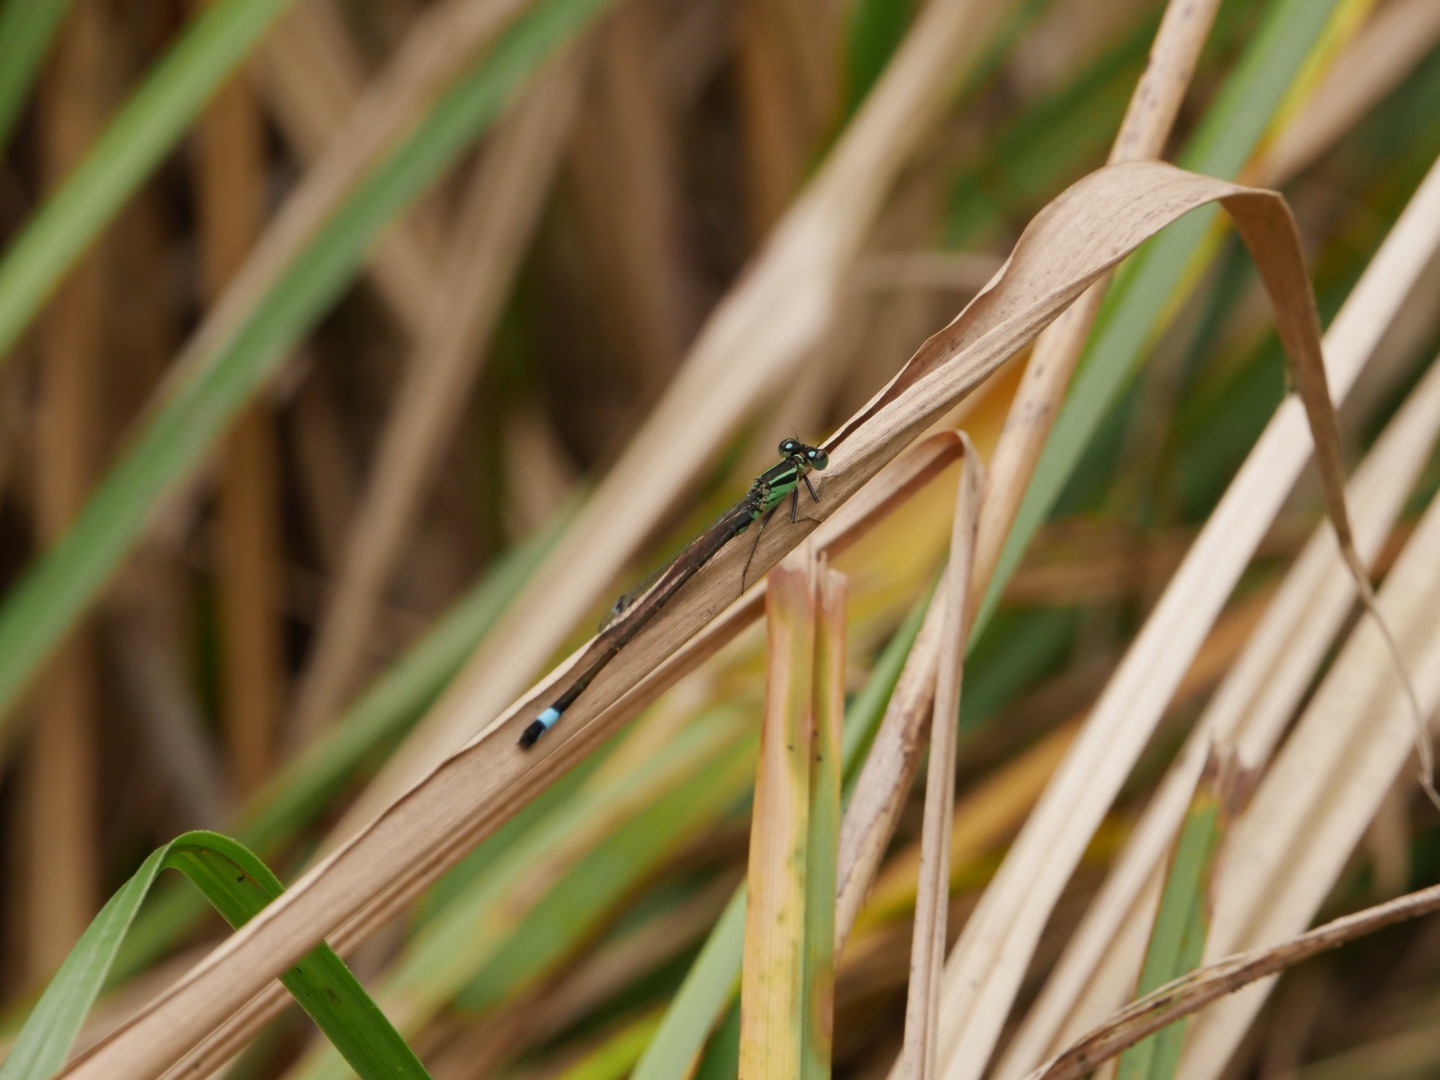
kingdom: Animalia
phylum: Arthropoda
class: Insecta
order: Odonata
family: Coenagrionidae
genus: Ischnura
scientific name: Ischnura elegans
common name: Stor farvevandnymfe
